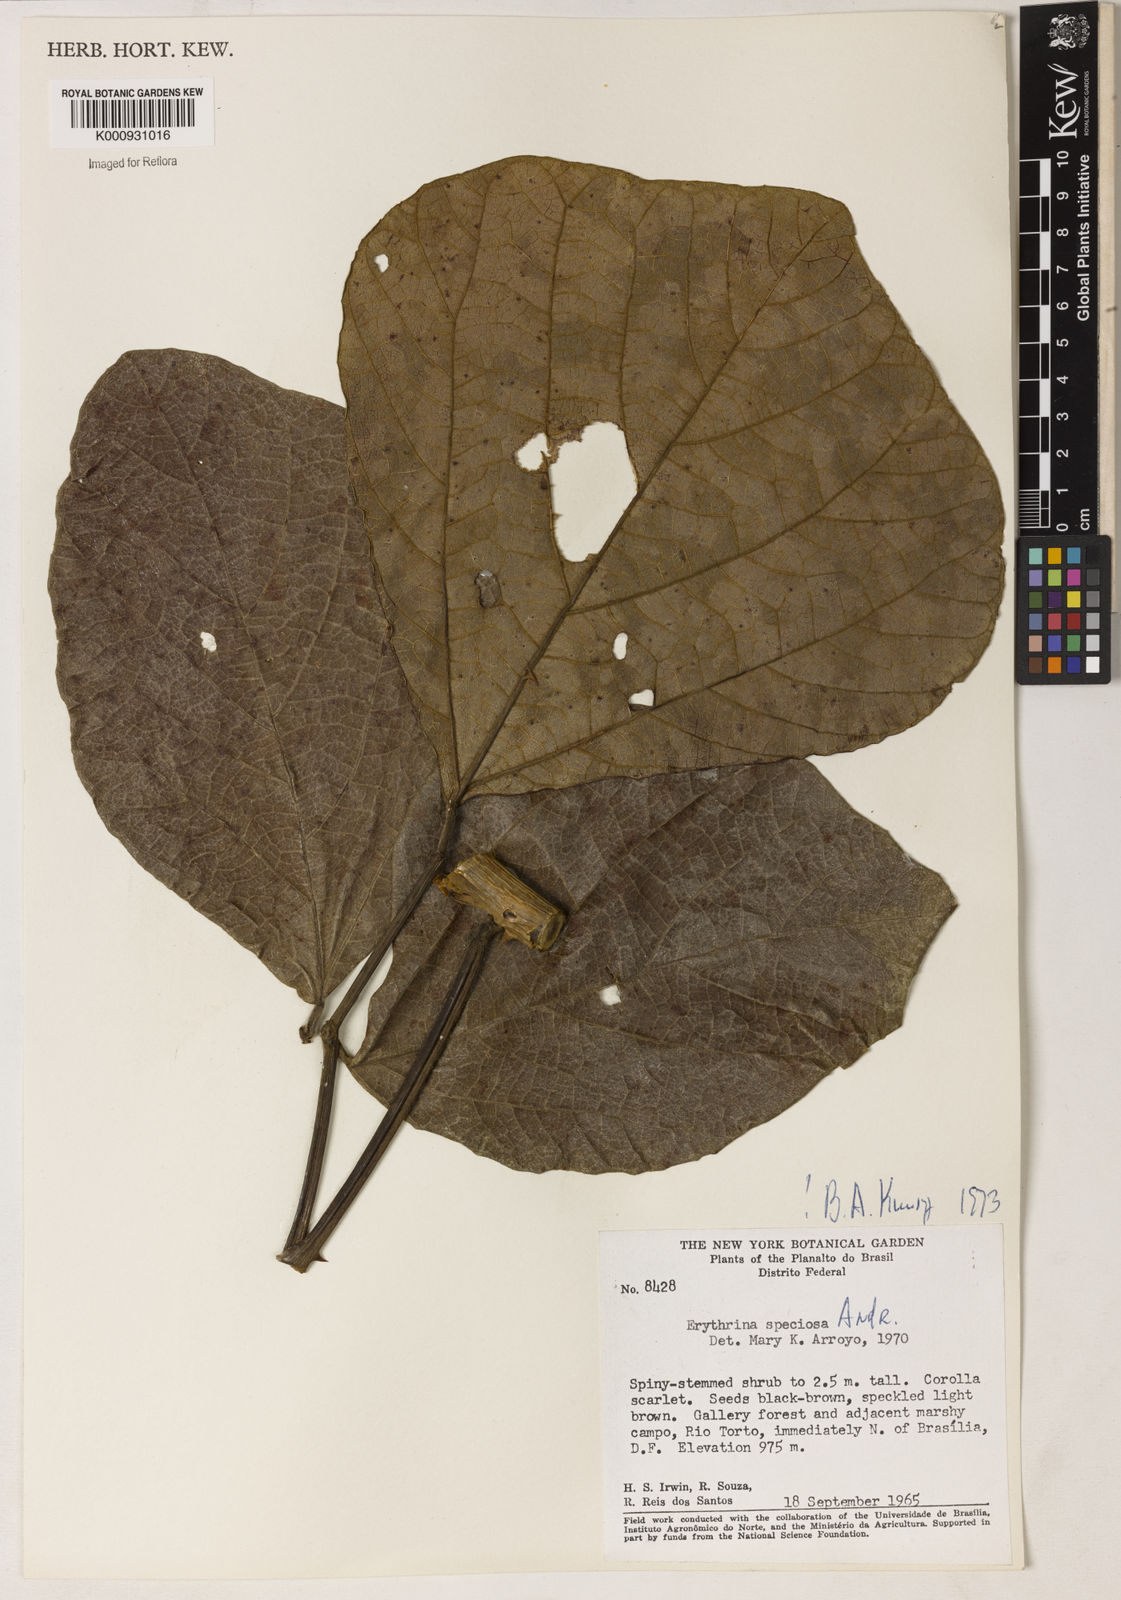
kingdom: Plantae
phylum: Tracheophyta
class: Magnoliopsida
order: Fabales
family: Fabaceae
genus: Erythrina
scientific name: Erythrina speciosa
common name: Coral tree
